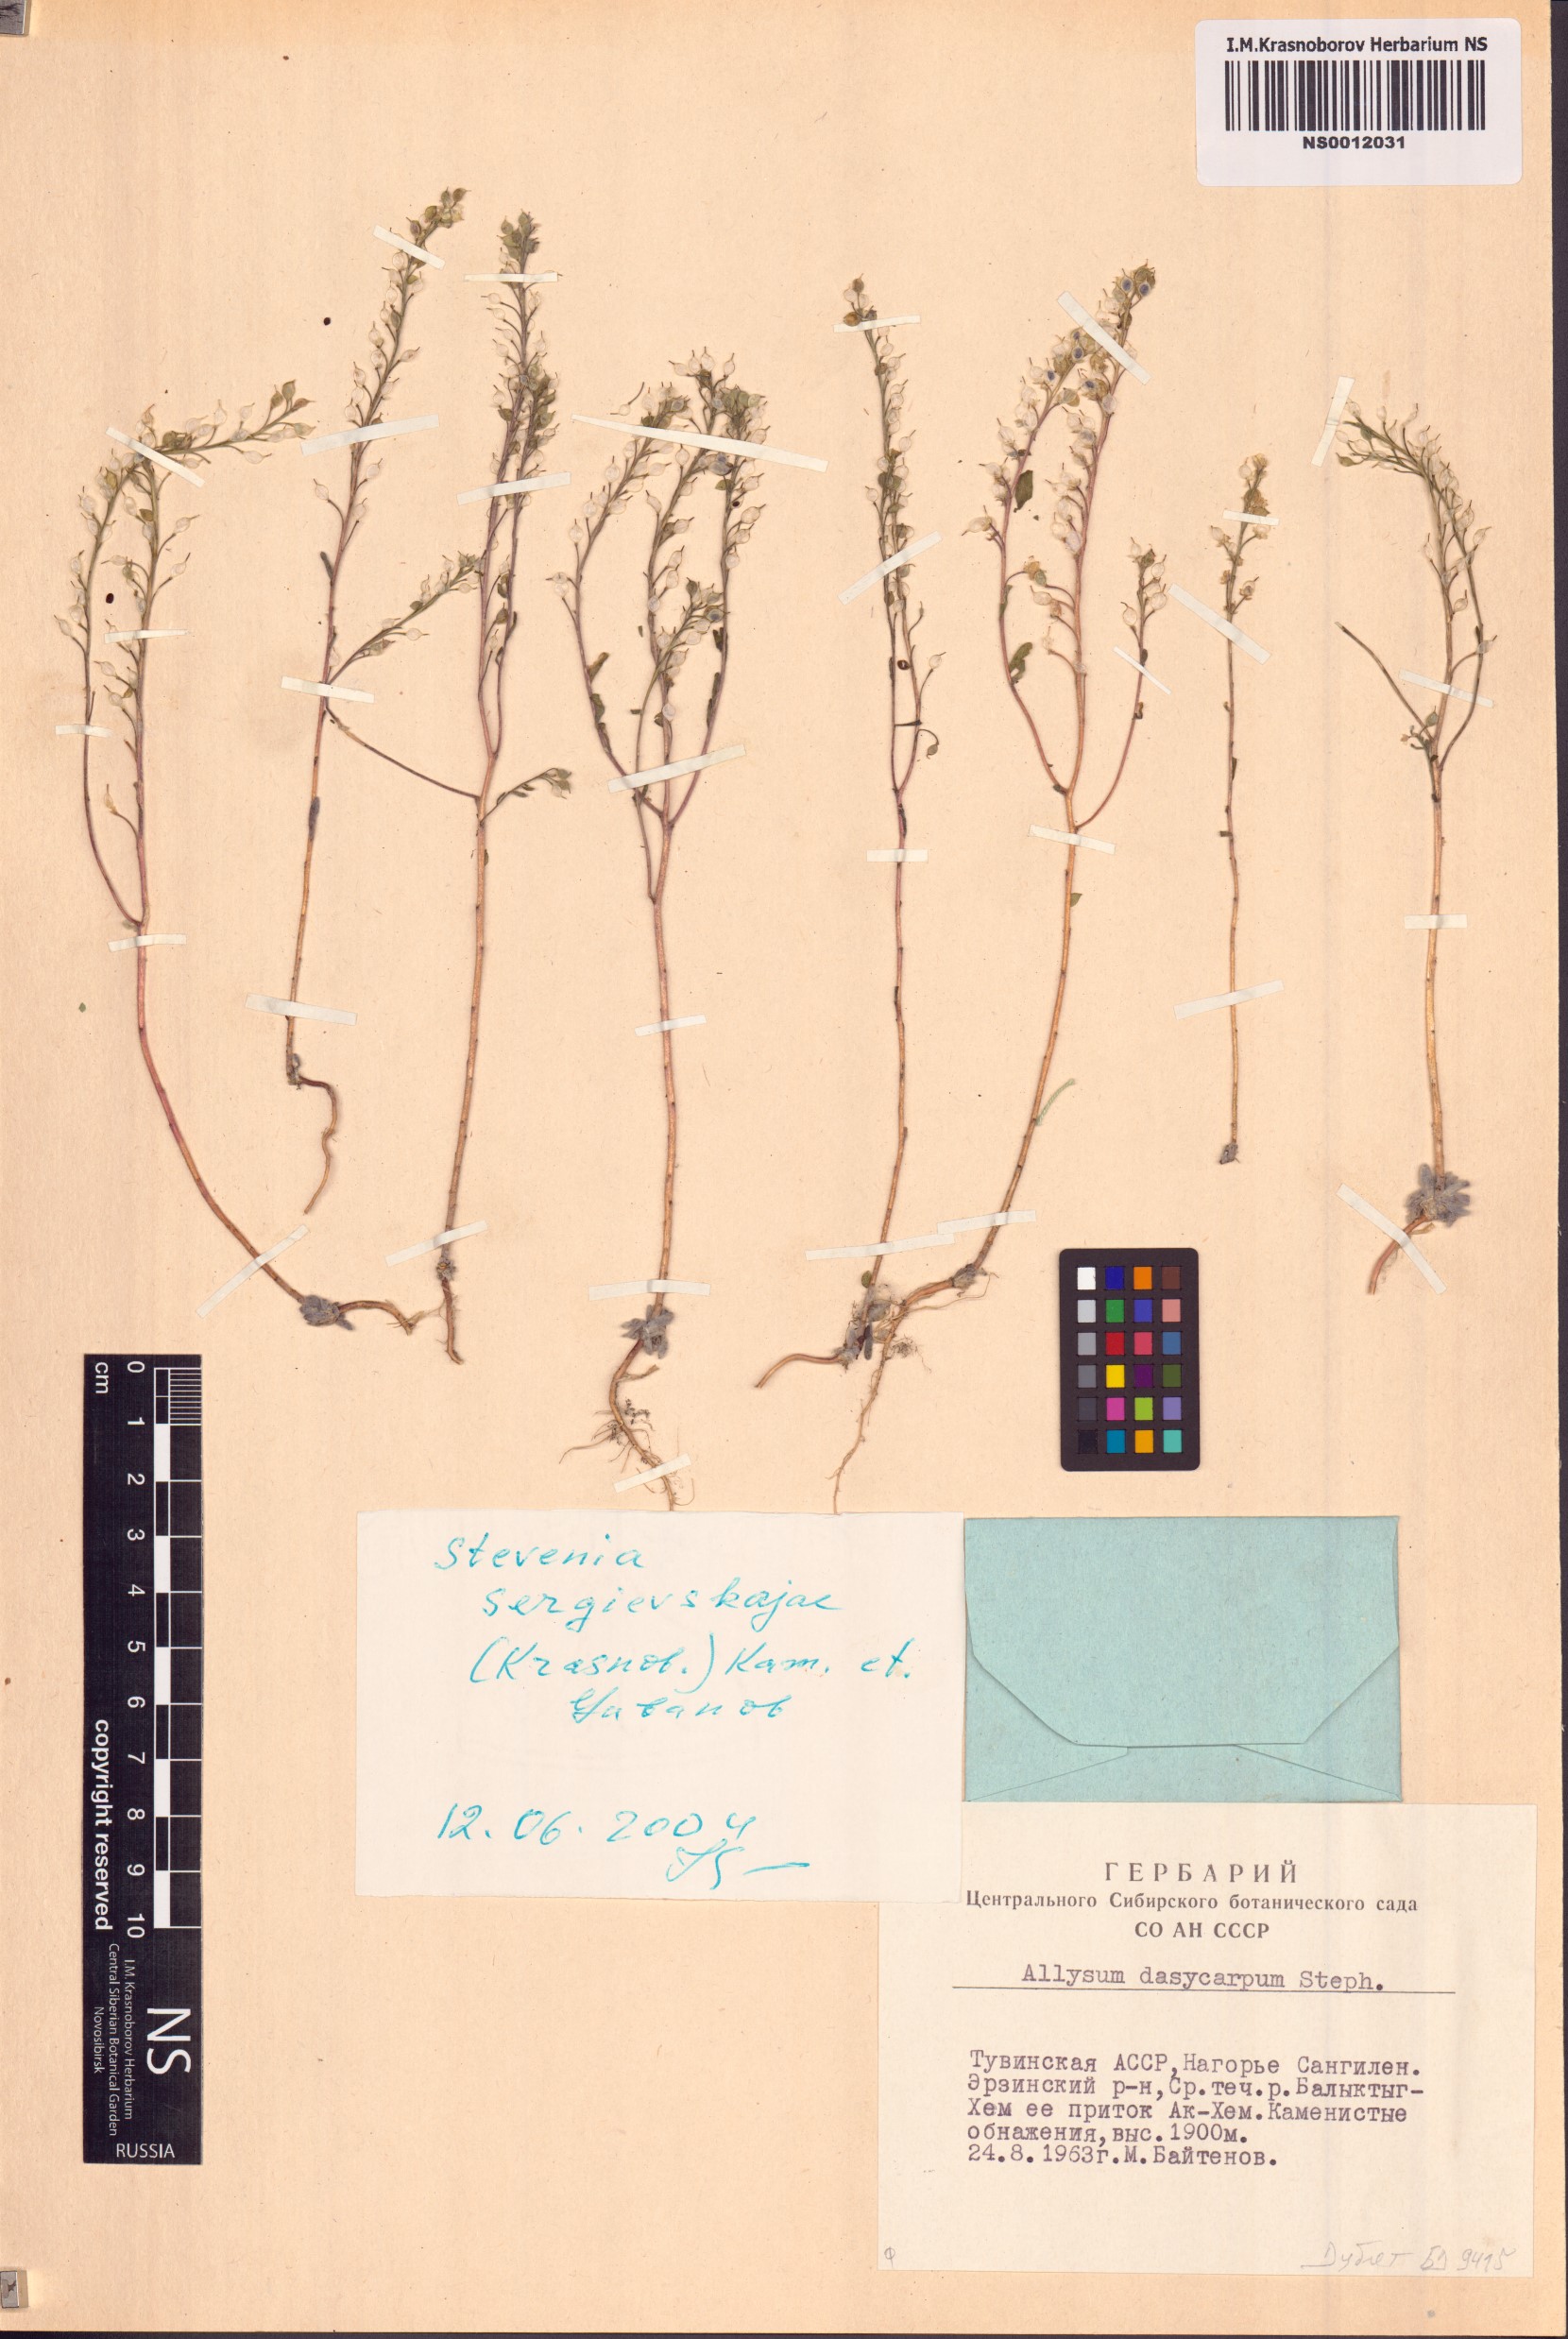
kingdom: Plantae
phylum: Tracheophyta
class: Magnoliopsida
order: Brassicales
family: Brassicaceae
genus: Stevenia
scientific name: Stevenia sergievskajae
